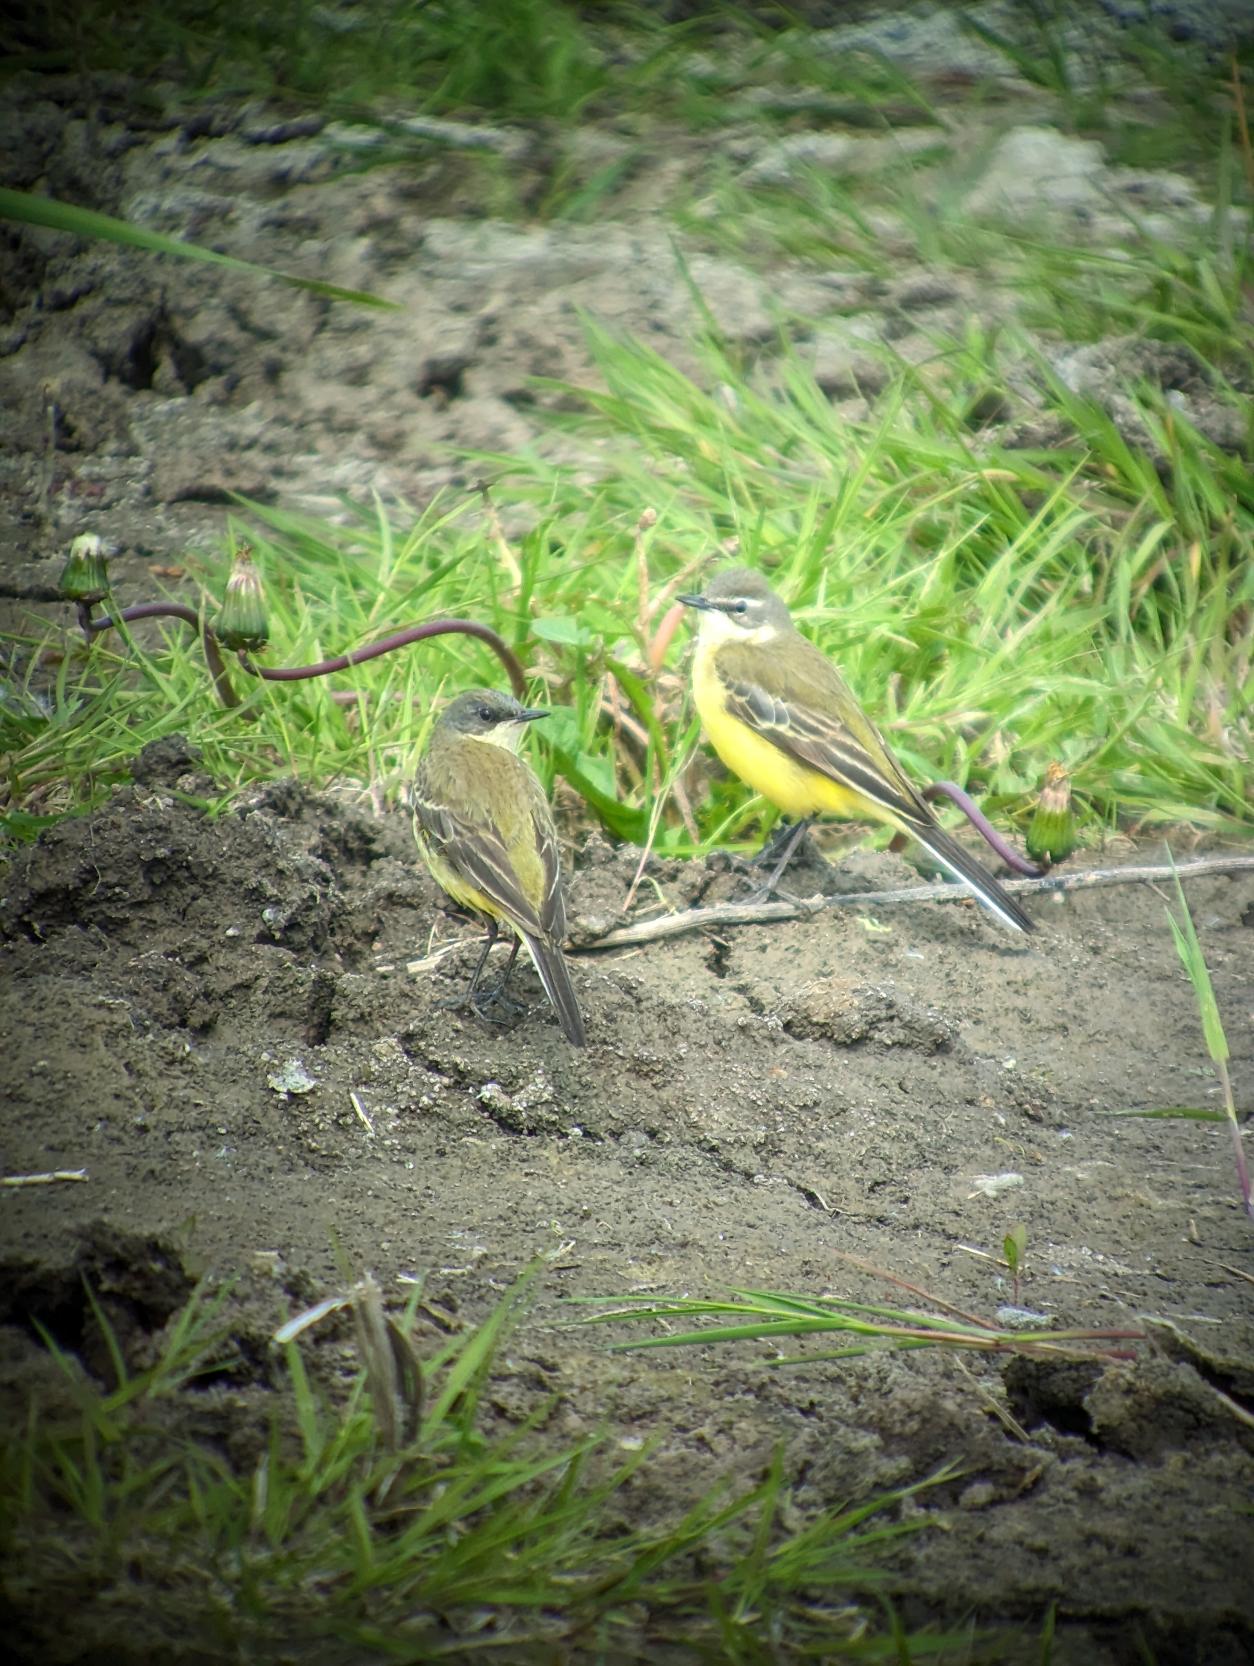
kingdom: Animalia
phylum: Chordata
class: Aves
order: Passeriformes
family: Motacillidae
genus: Motacilla
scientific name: Motacilla flava
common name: Gul vipstjert
